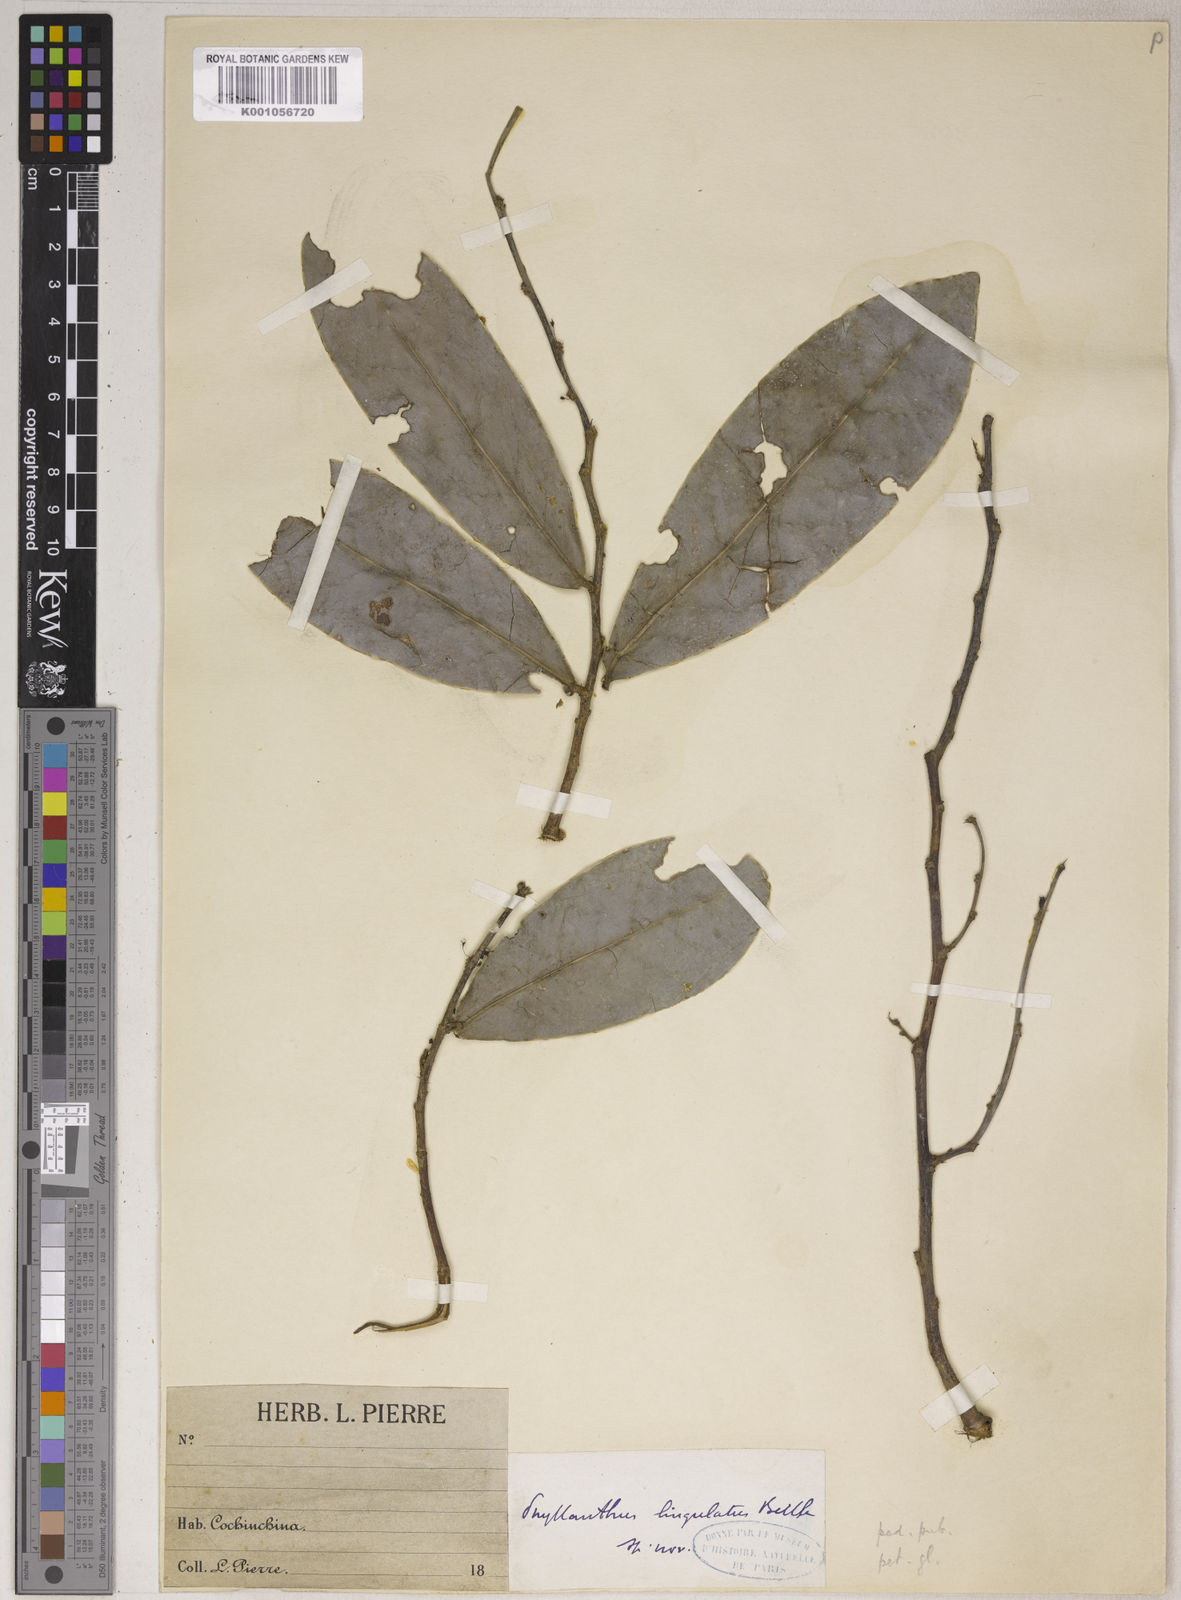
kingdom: Plantae
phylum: Tracheophyta
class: Magnoliopsida
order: Malpighiales
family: Phyllanthaceae
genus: Phyllanthus
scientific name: Phyllanthus lingulatus
